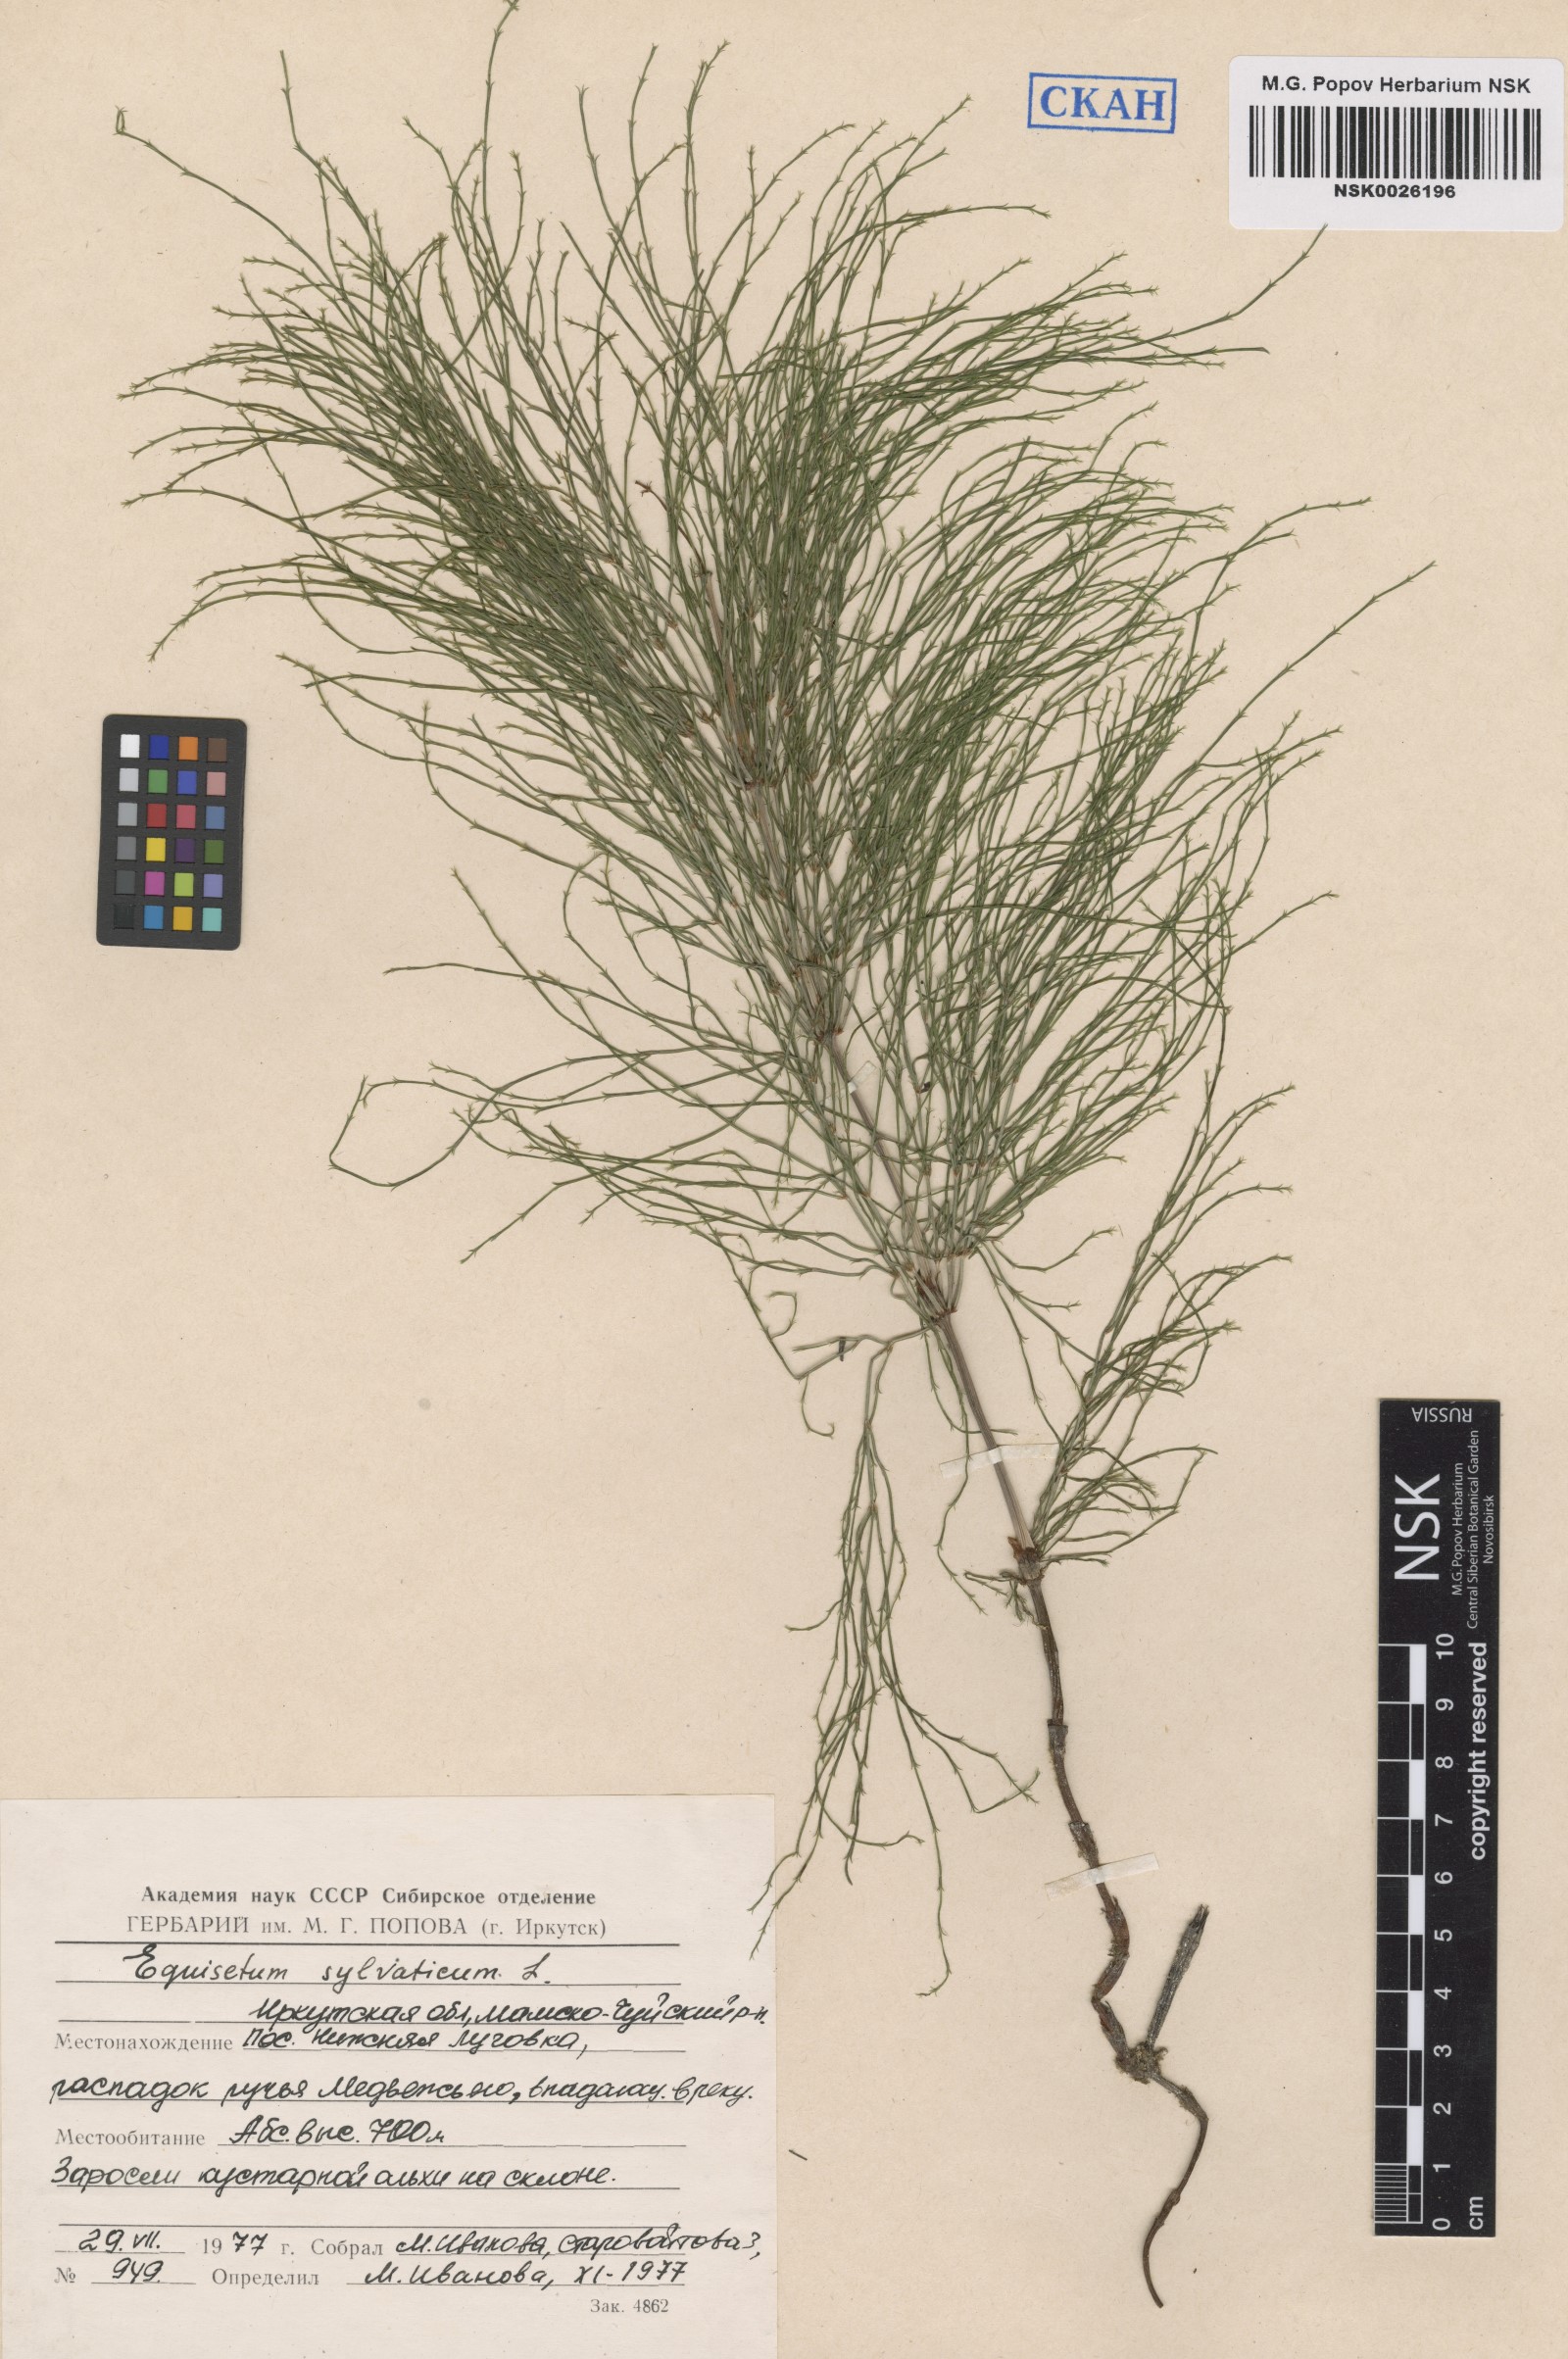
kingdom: Plantae
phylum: Tracheophyta
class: Polypodiopsida
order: Equisetales
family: Equisetaceae
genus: Equisetum
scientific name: Equisetum sylvaticum
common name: Wood horsetail
